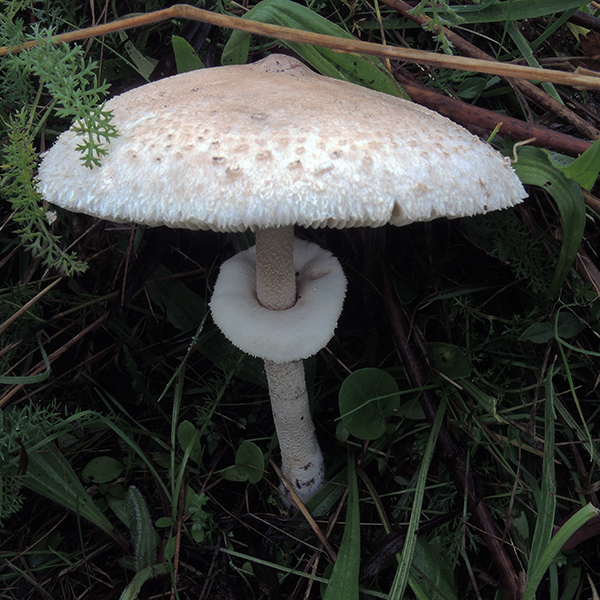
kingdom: Fungi
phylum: Basidiomycota
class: Agaricomycetes
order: Agaricales
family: Agaricaceae
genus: Macrolepiota
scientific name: Macrolepiota mastoidea
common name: puklet kæmpeparasolhat
